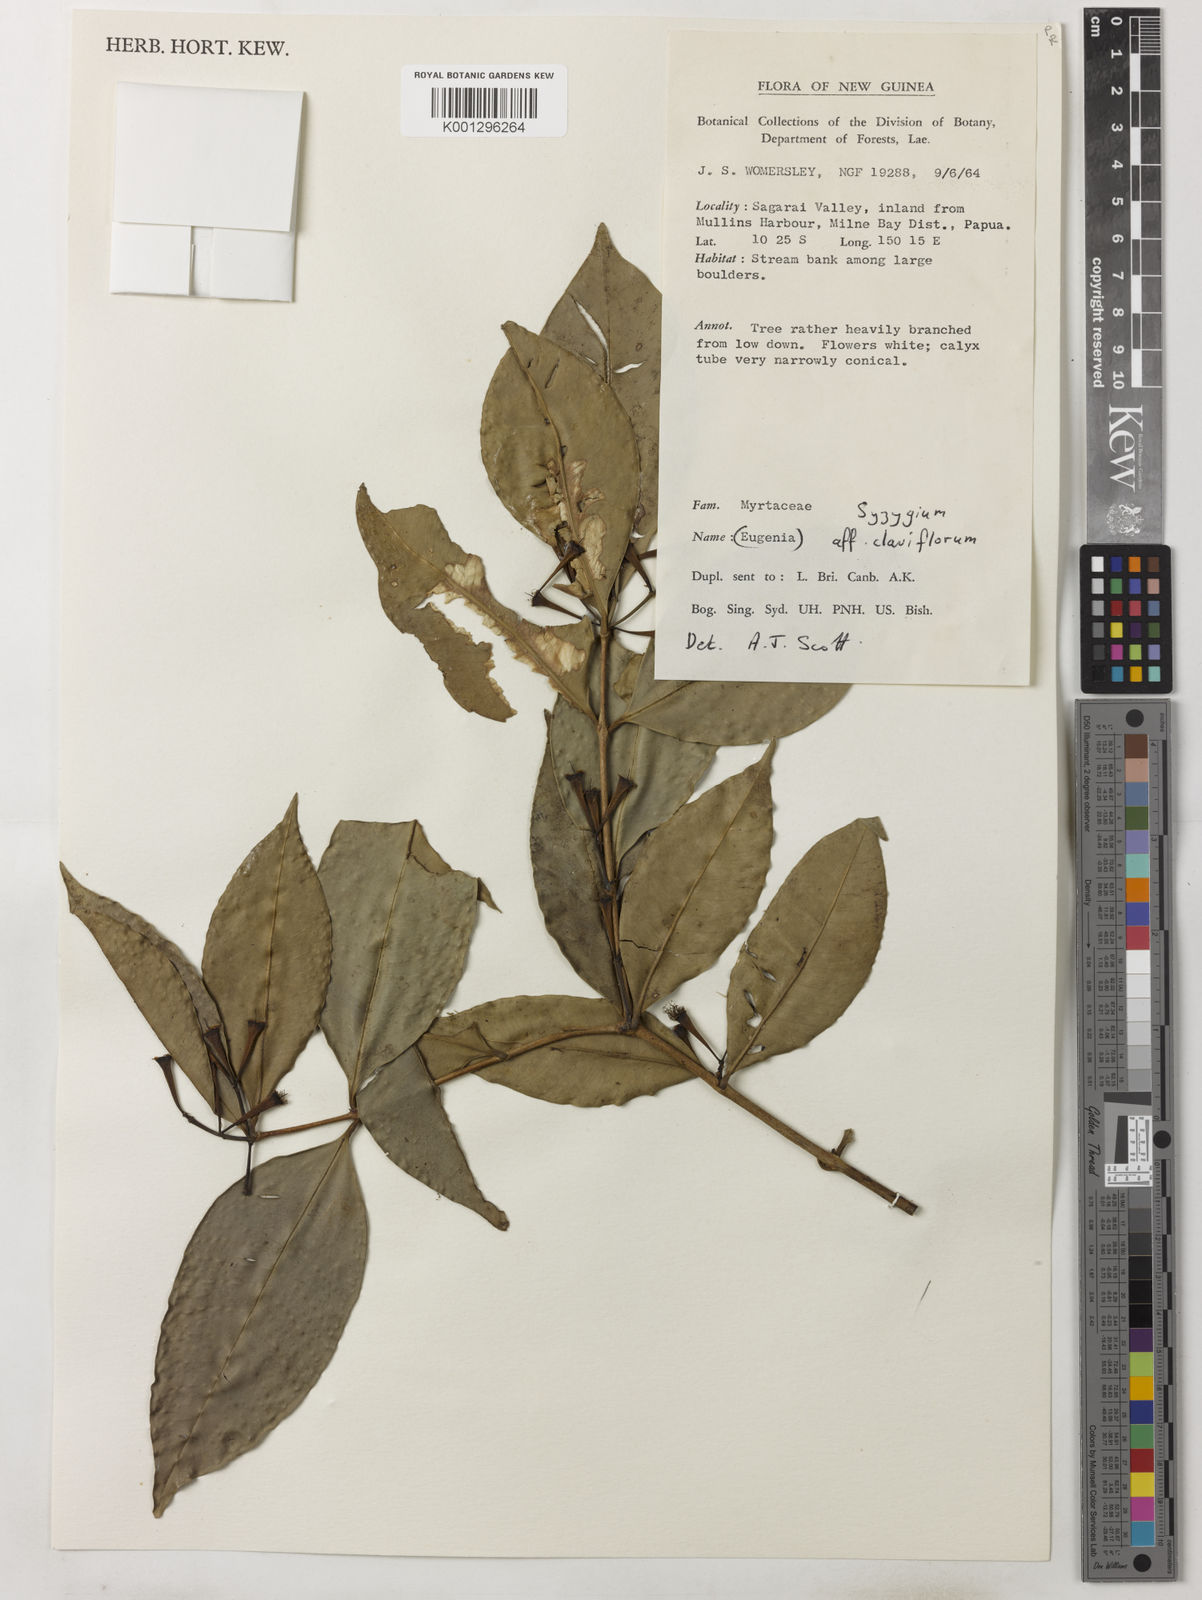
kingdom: Plantae
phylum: Tracheophyta
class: Magnoliopsida
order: Myrtales
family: Myrtaceae
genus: Syzygium
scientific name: Syzygium claviflorum
